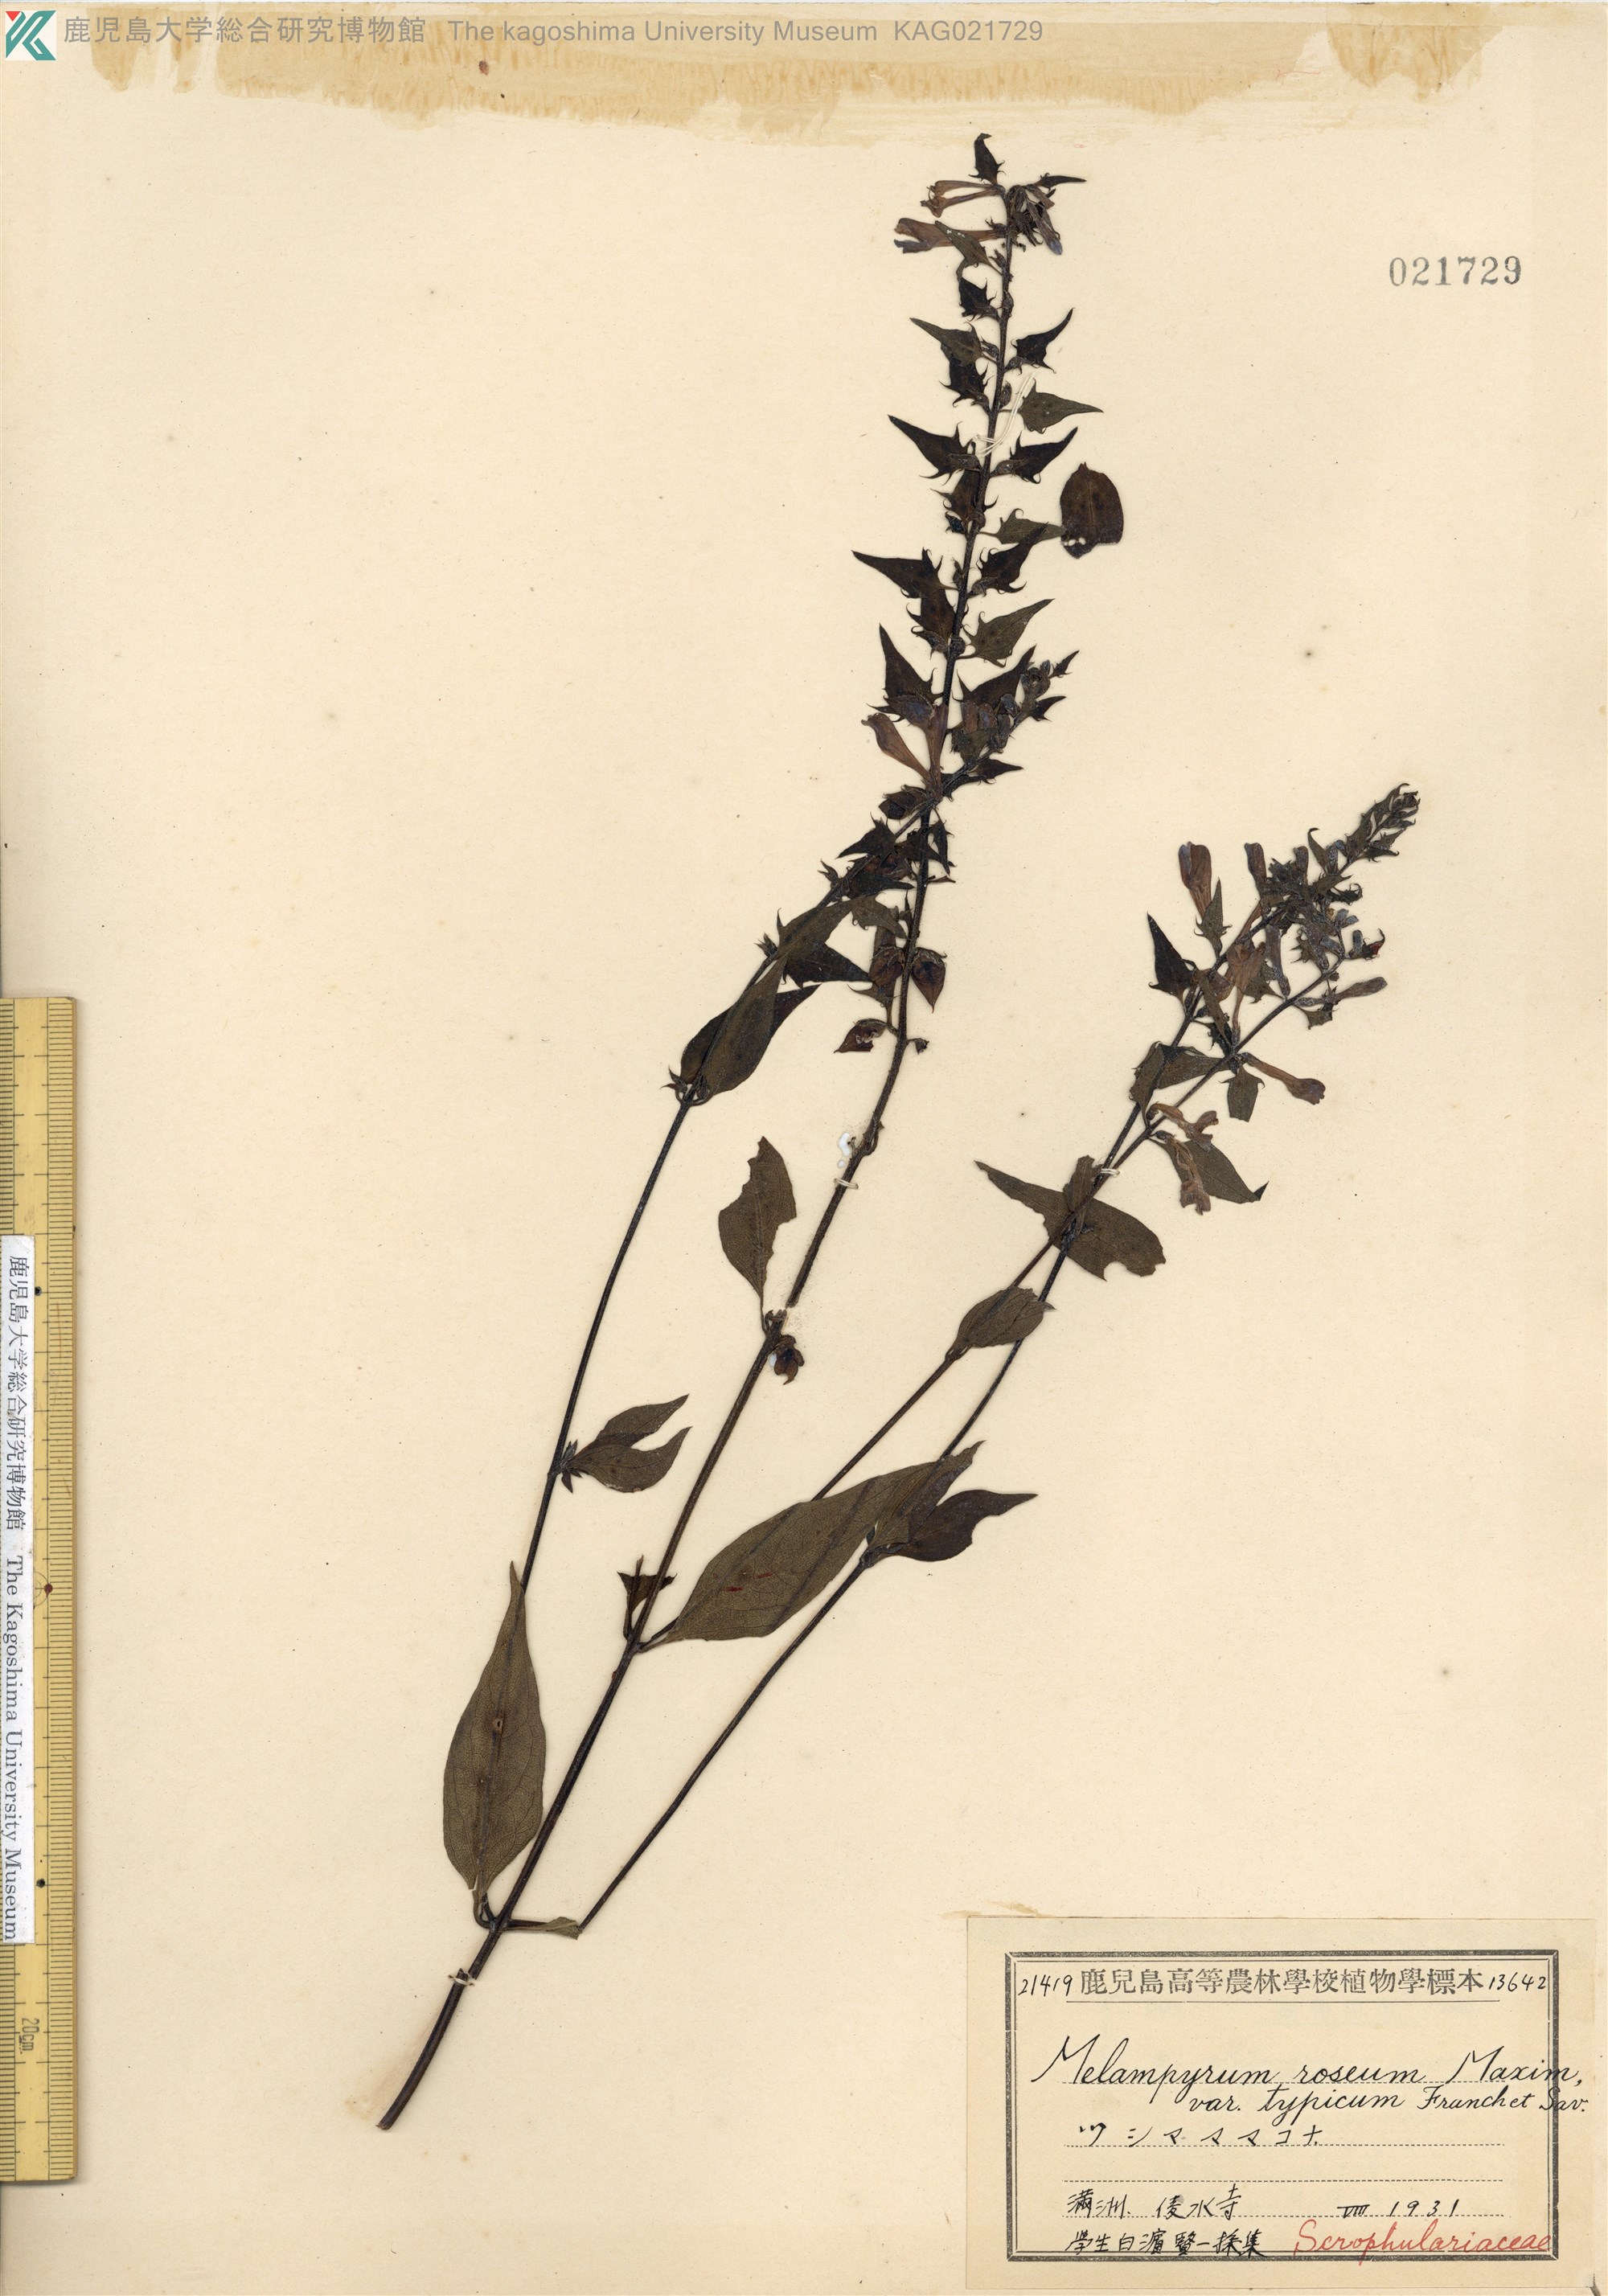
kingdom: Plantae
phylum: Tracheophyta
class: Magnoliopsida
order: Lamiales
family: Orobanchaceae
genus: Melampyrum
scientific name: Melampyrum roseum
